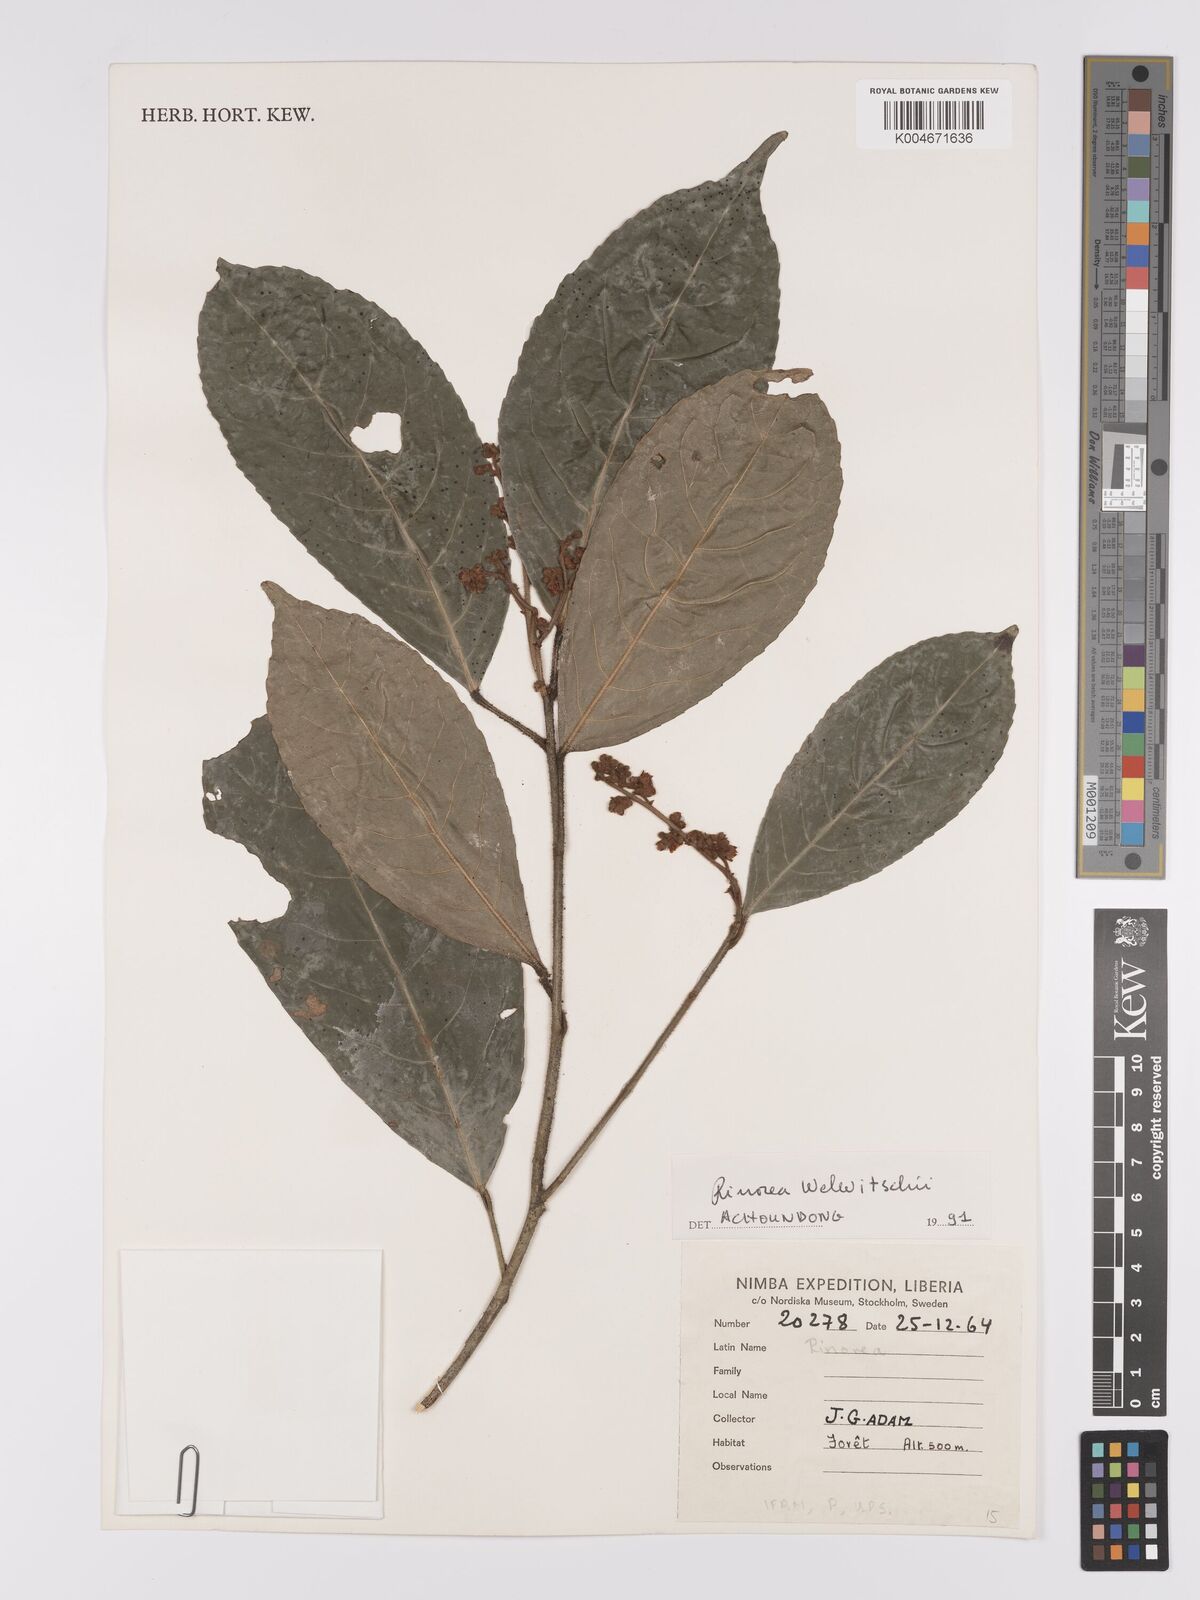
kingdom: Plantae
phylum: Tracheophyta
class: Magnoliopsida
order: Malpighiales
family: Violaceae
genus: Rinorea
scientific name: Rinorea welwitschii
